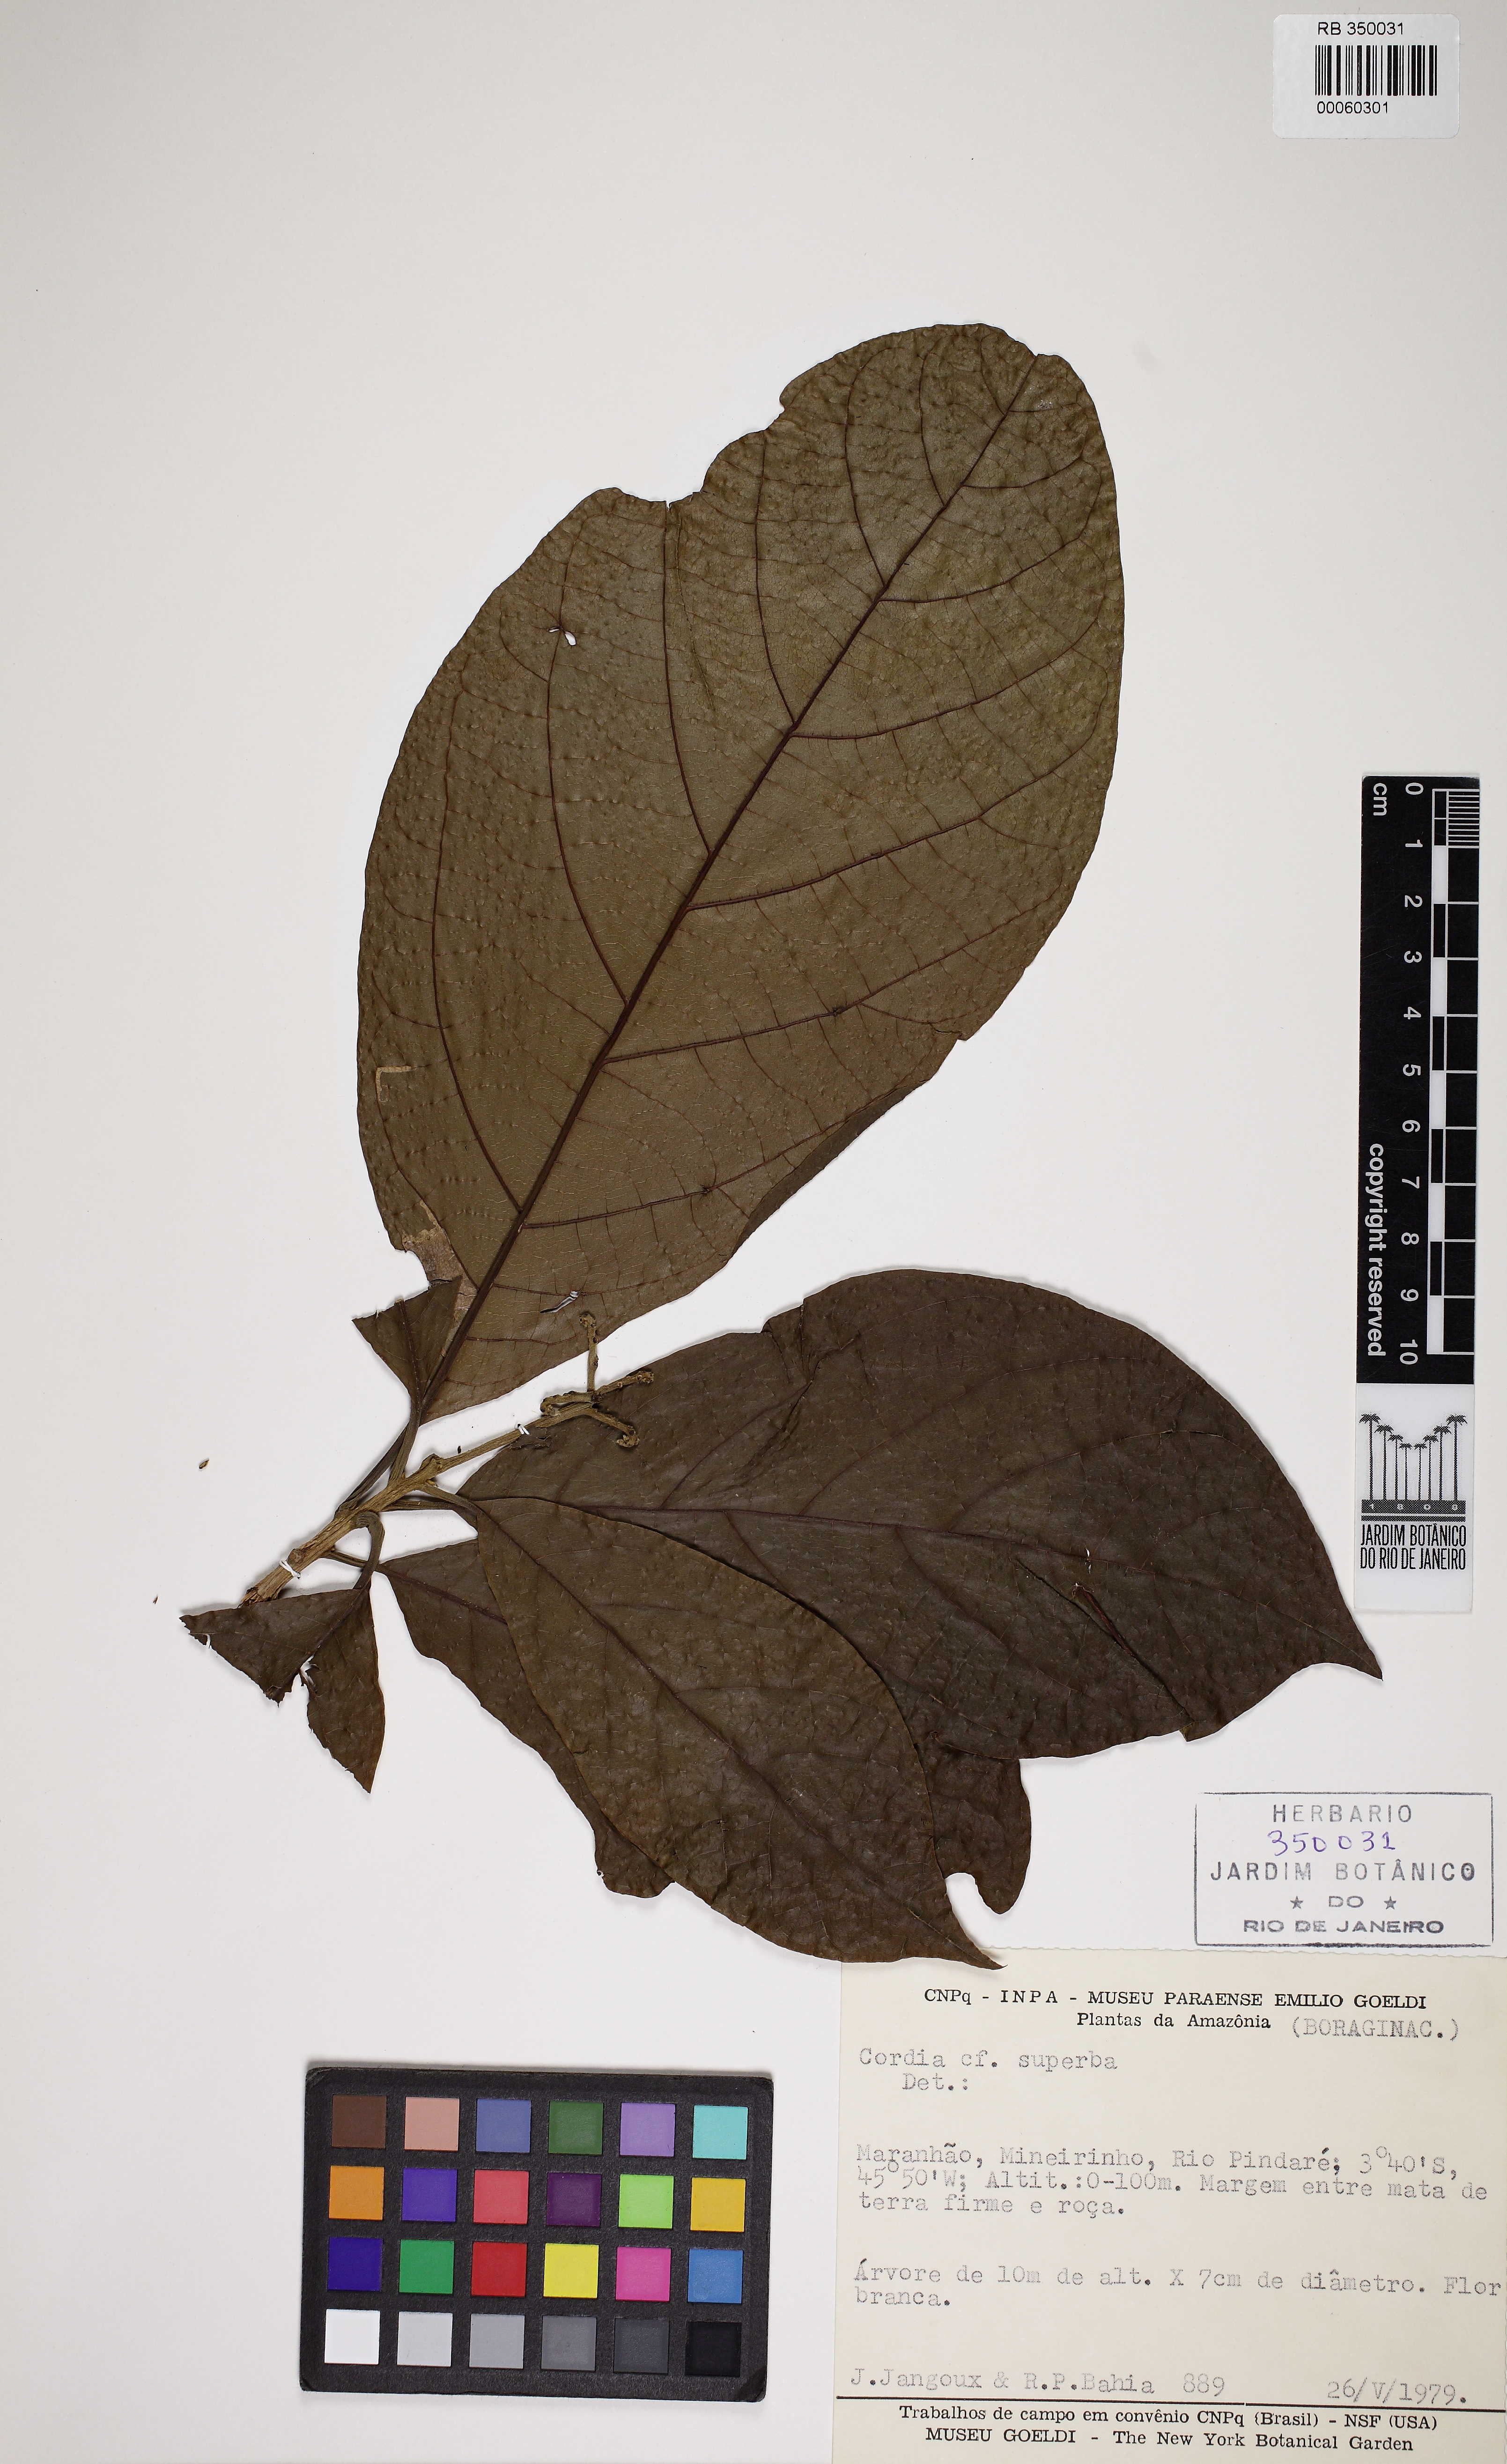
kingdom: Plantae
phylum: Tracheophyta
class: Magnoliopsida
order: Boraginales
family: Cordiaceae
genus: Cordia
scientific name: Cordia superba
